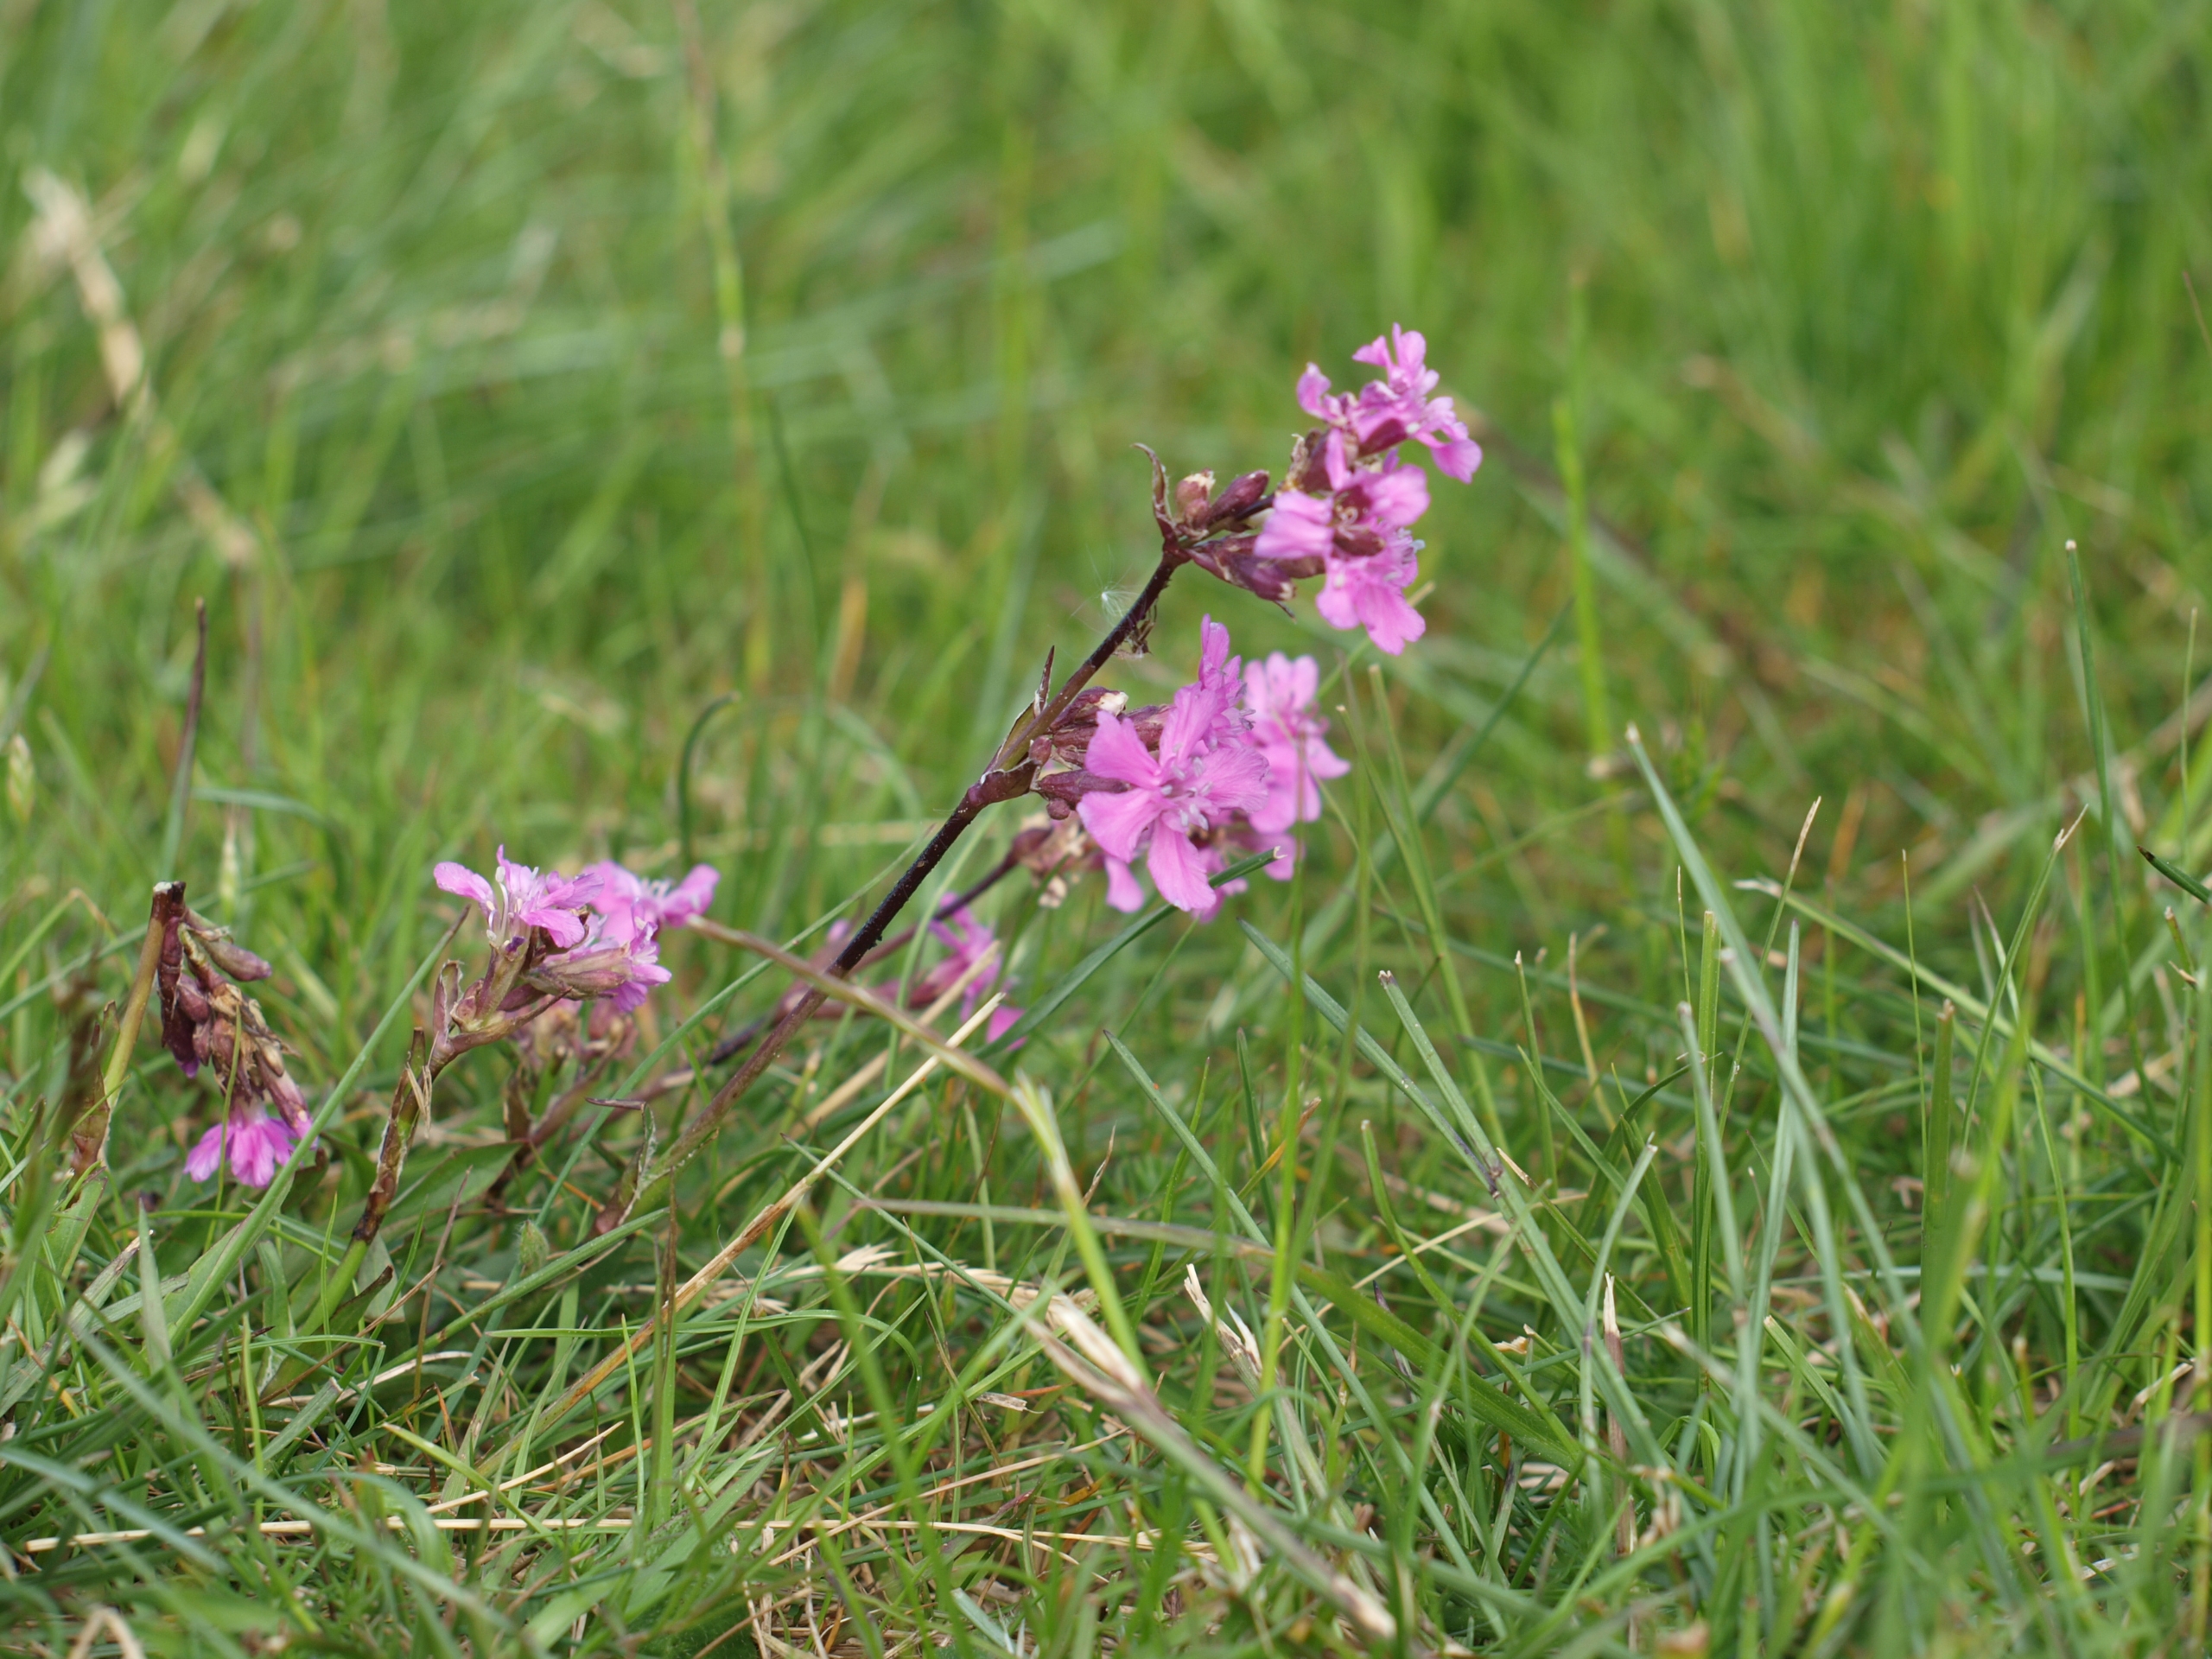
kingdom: Plantae
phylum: Tracheophyta
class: Magnoliopsida
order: Caryophyllales
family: Caryophyllaceae
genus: Viscaria
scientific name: Viscaria vulgaris
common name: Tjærenellike
